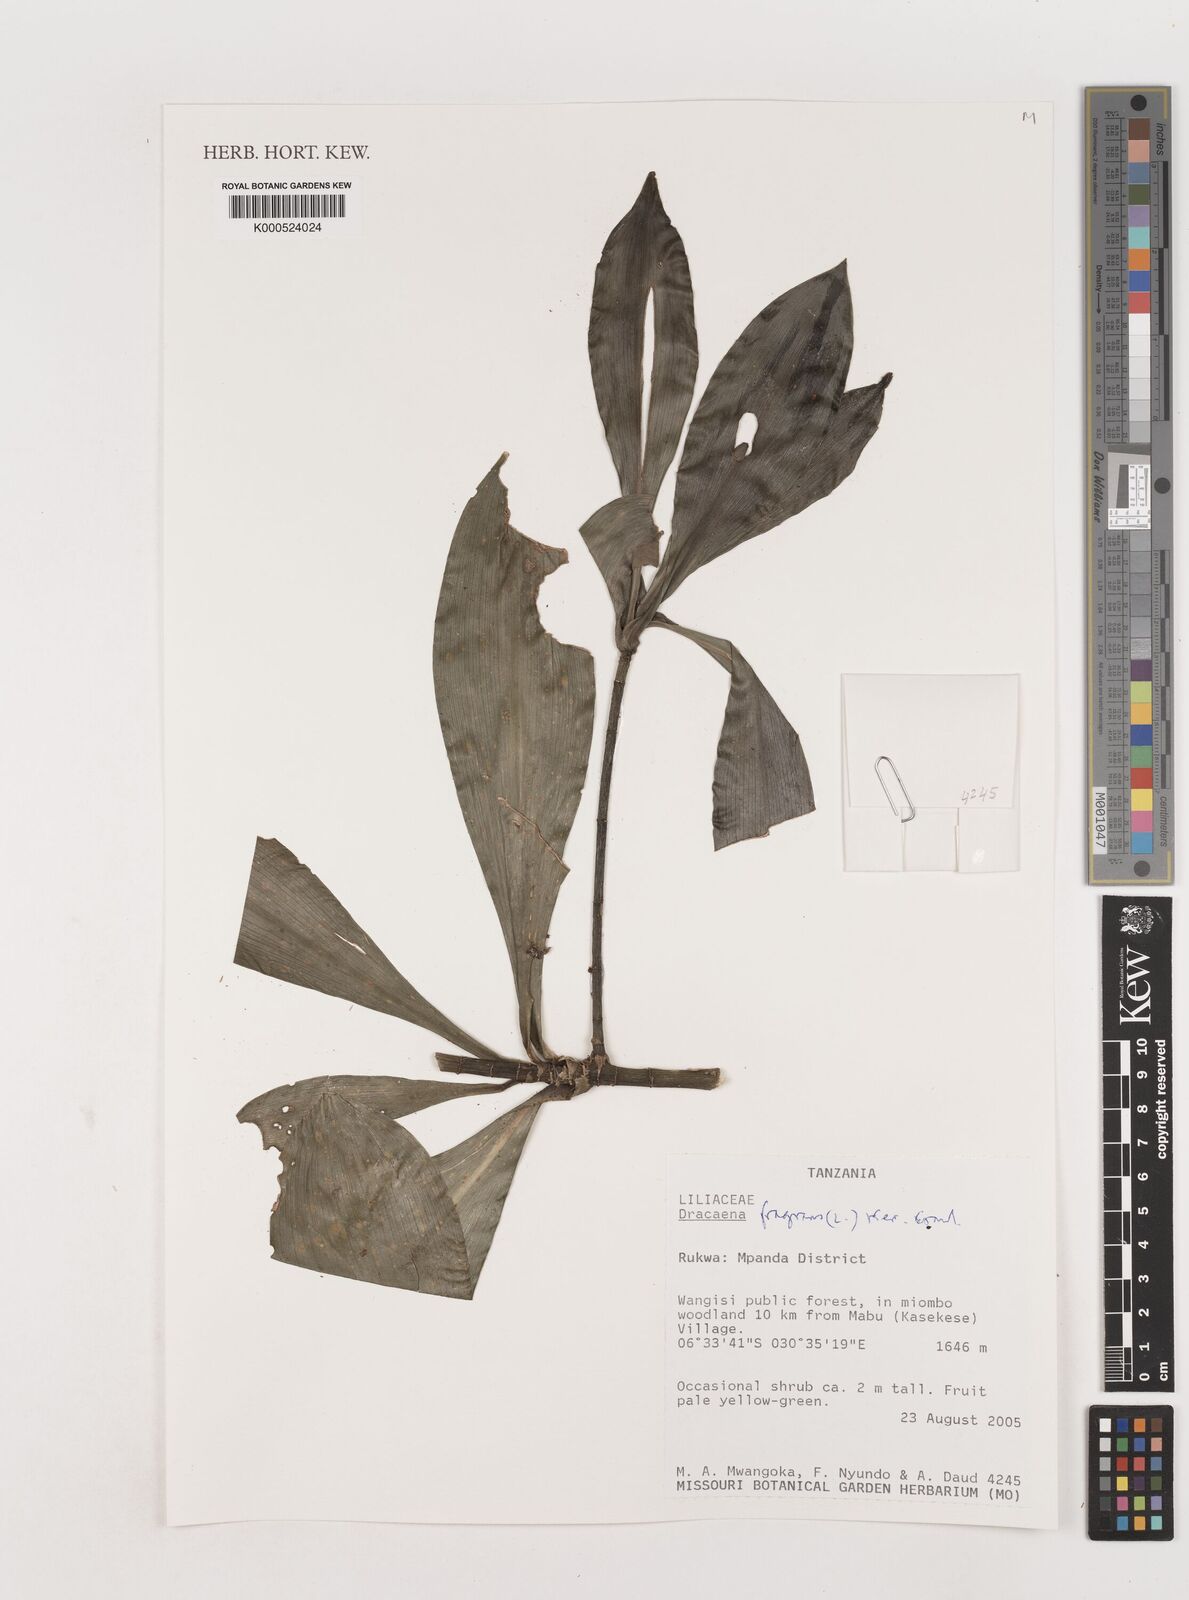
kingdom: Plantae
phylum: Tracheophyta
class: Liliopsida
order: Asparagales
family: Asparagaceae
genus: Dracaena
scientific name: Dracaena fragrans
